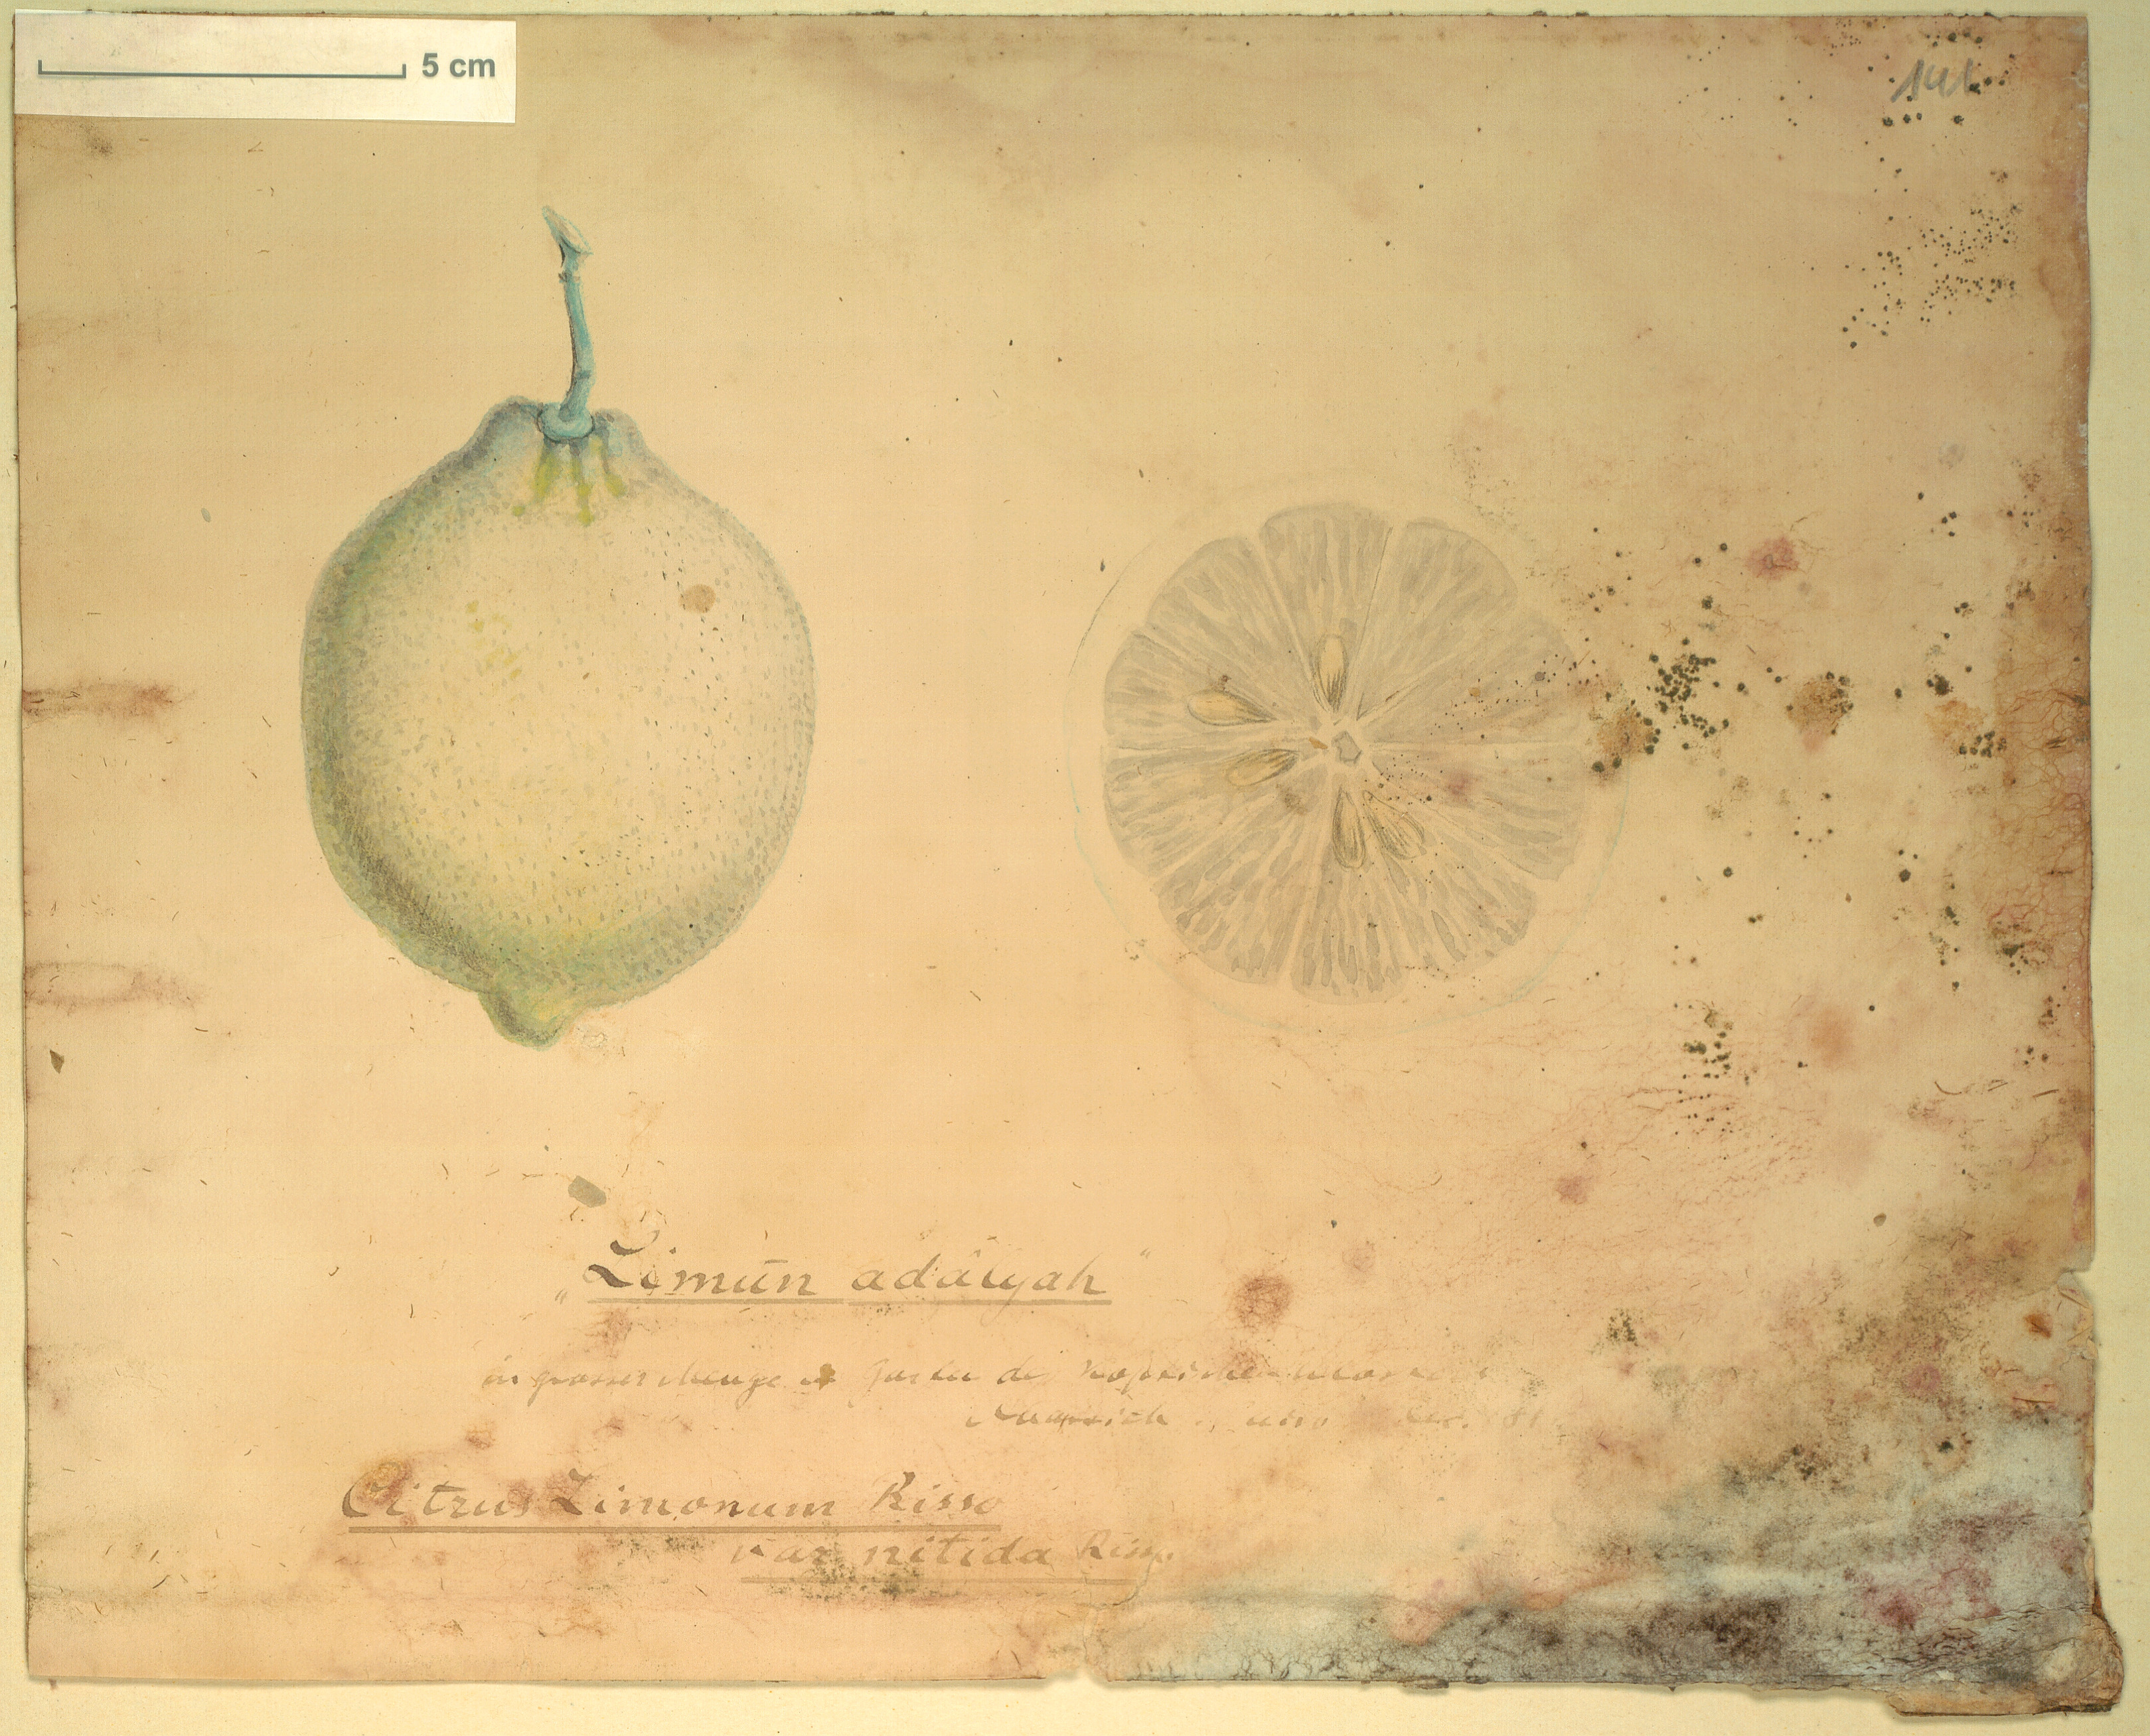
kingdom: Plantae
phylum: Tracheophyta
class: Magnoliopsida
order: Sapindales
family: Rutaceae
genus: Citrus
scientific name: Citrus limon
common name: Lemon
